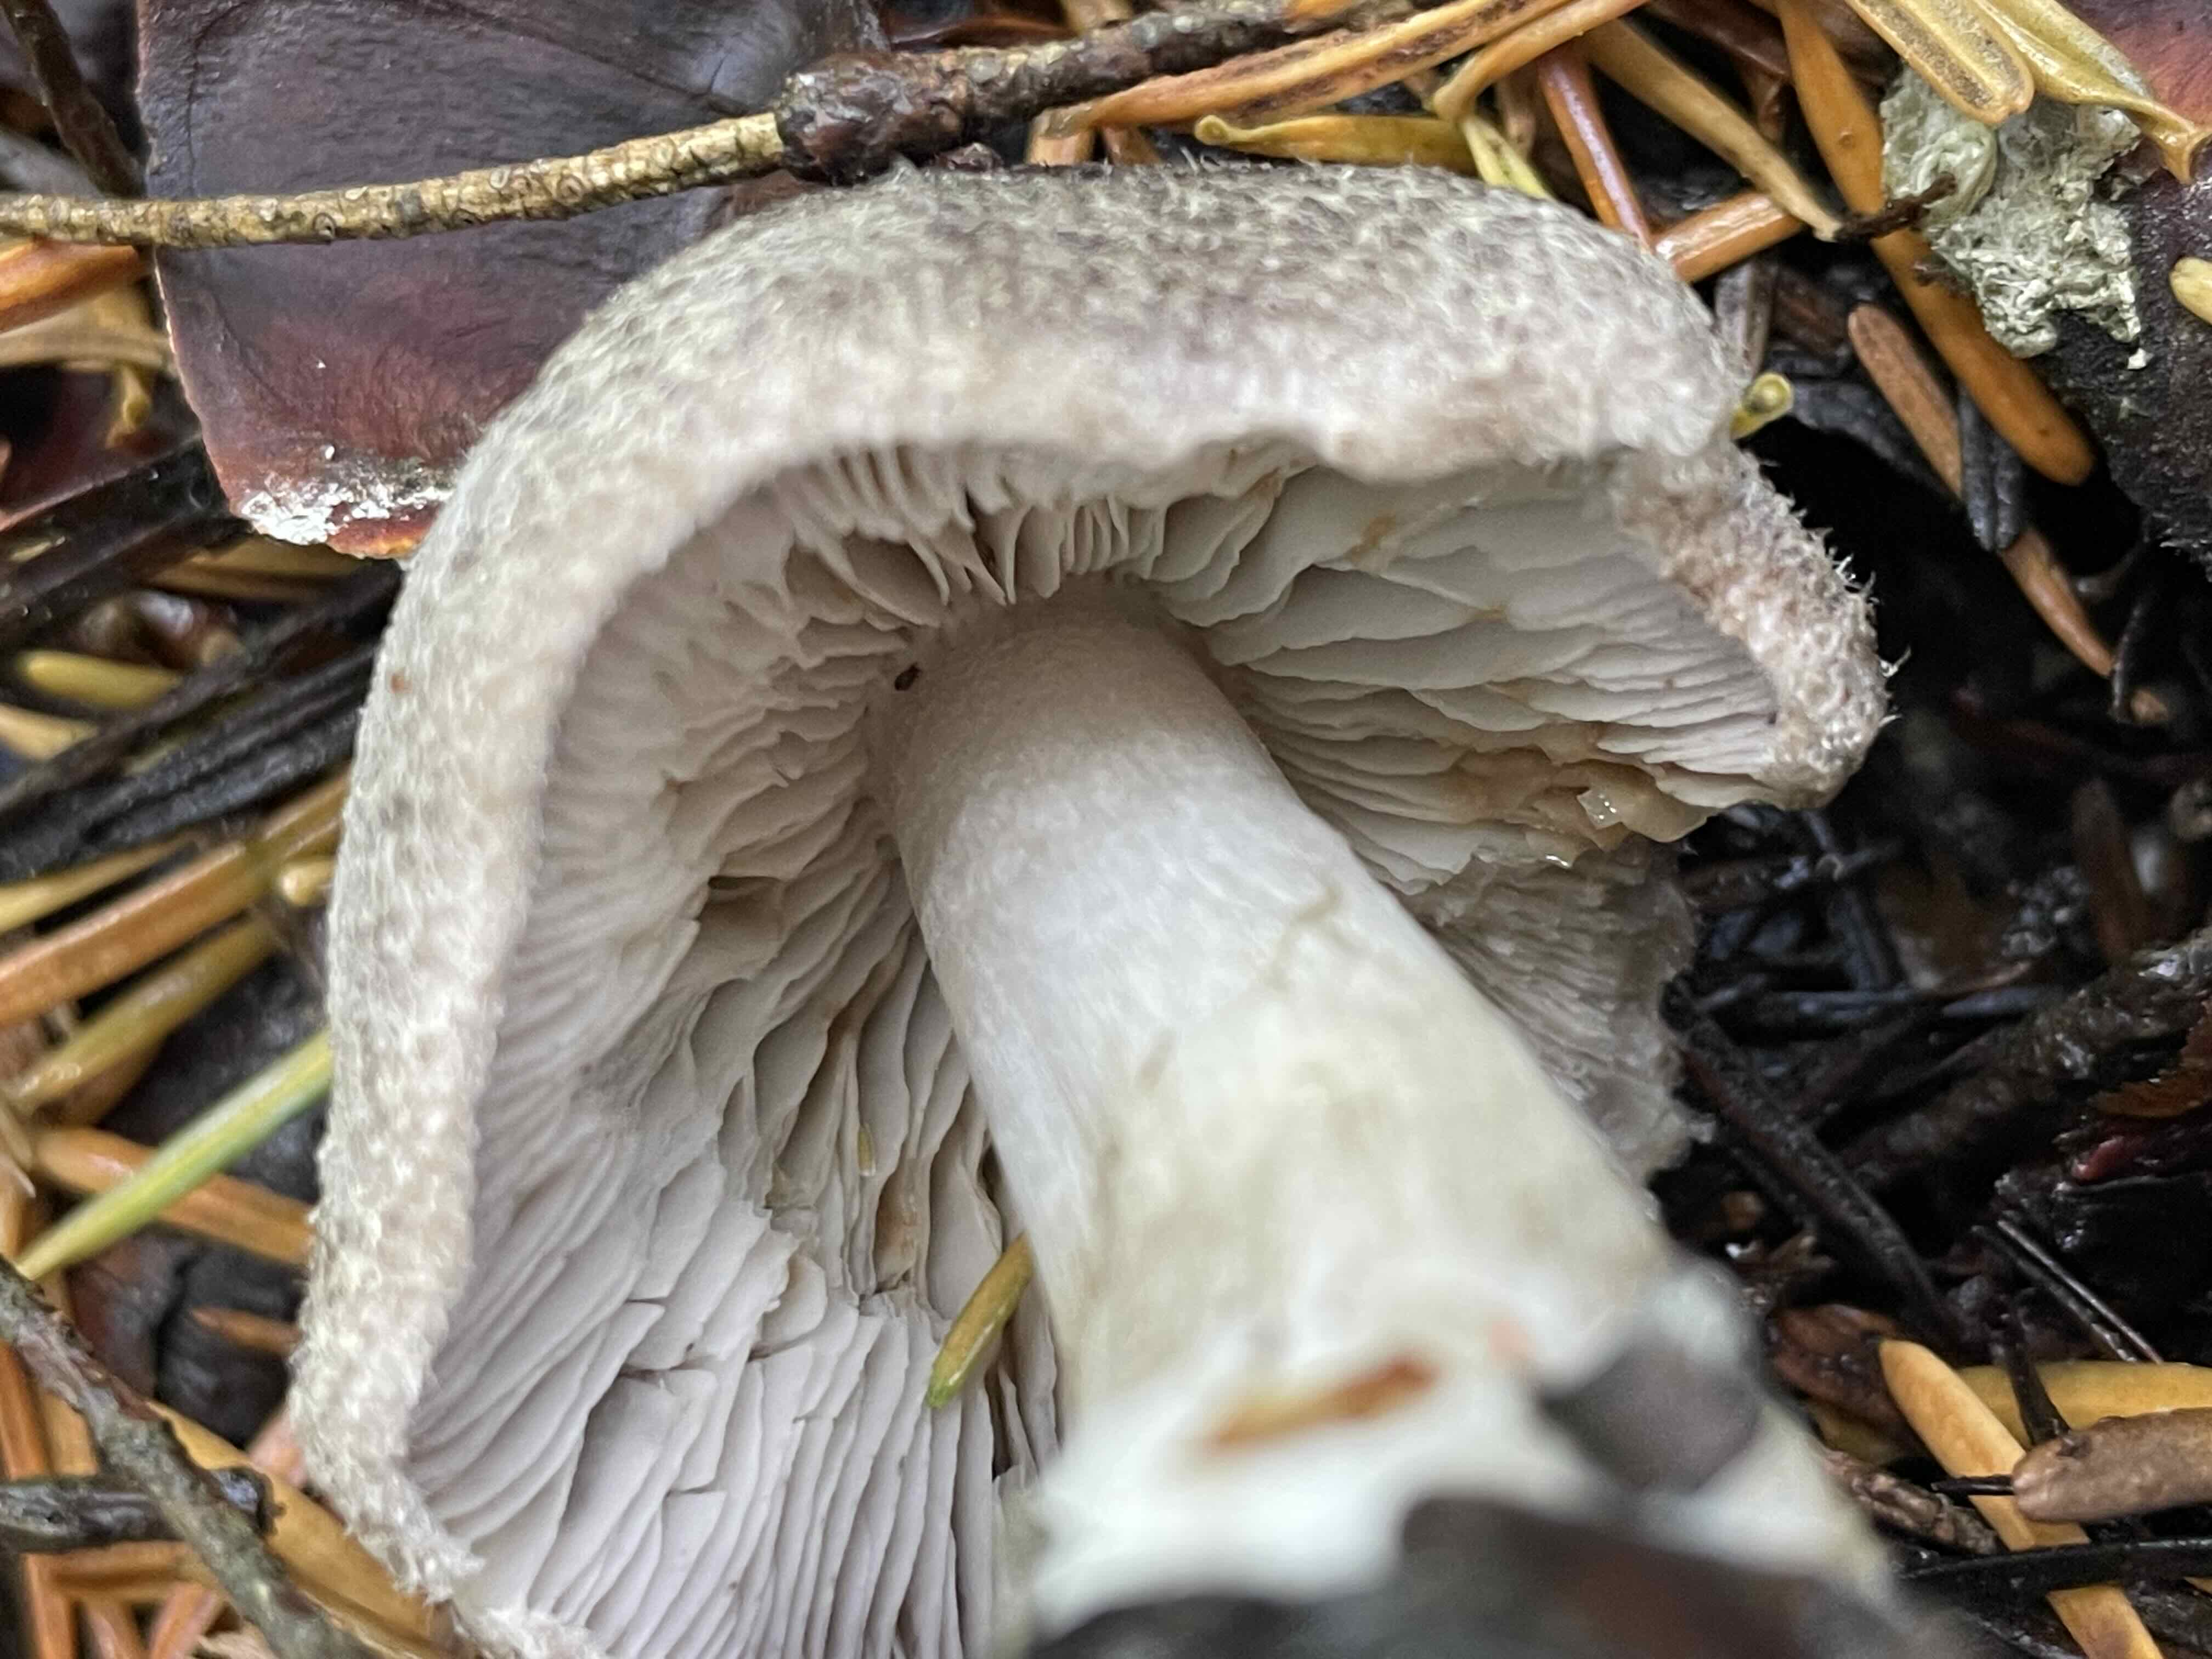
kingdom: Fungi
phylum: Basidiomycota
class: Agaricomycetes
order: Agaricales
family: Tricholomataceae
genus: Tricholoma
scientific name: Tricholoma terreum
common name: jordfarvet ridderhat
